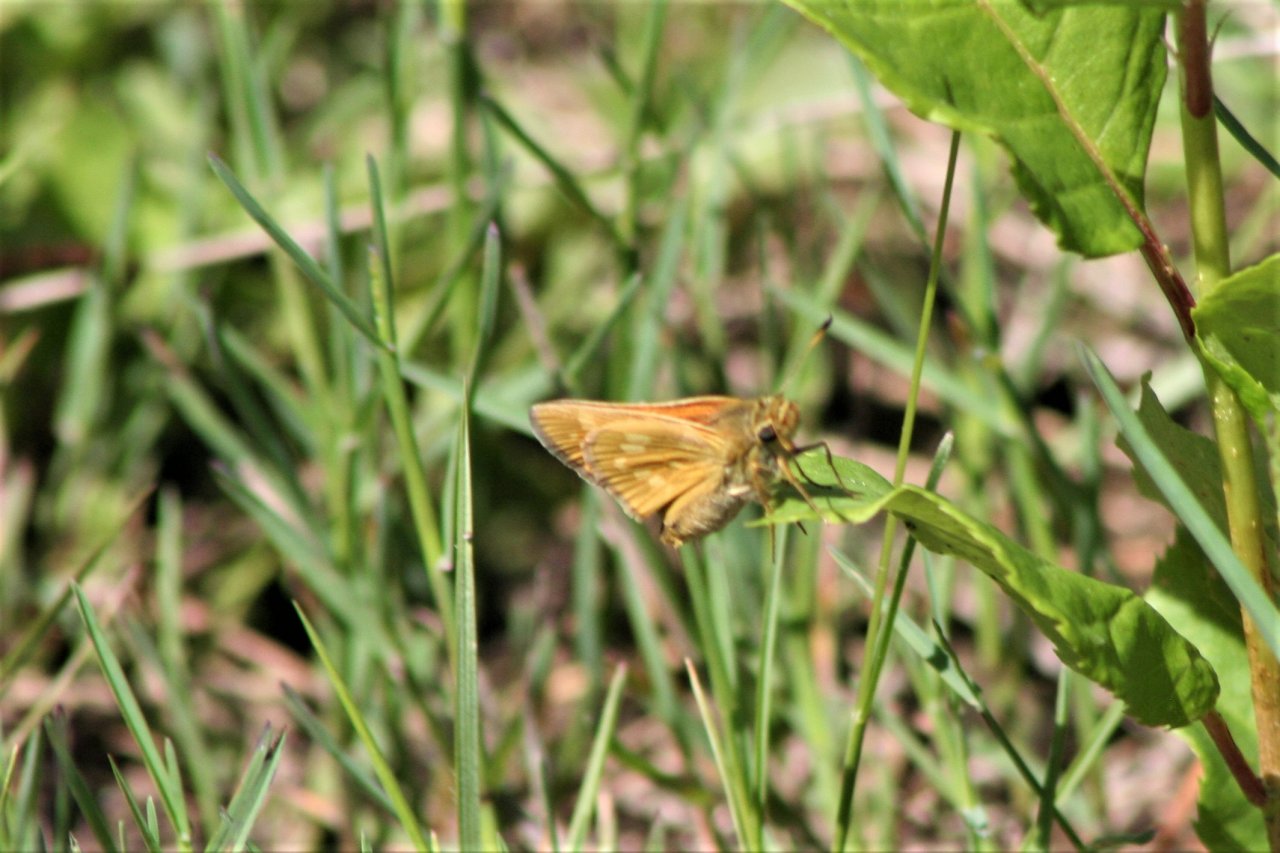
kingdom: Animalia
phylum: Arthropoda
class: Insecta
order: Lepidoptera
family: Hesperiidae
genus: Hesperia
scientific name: Hesperia sassacus
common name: Sassacus Skipper
